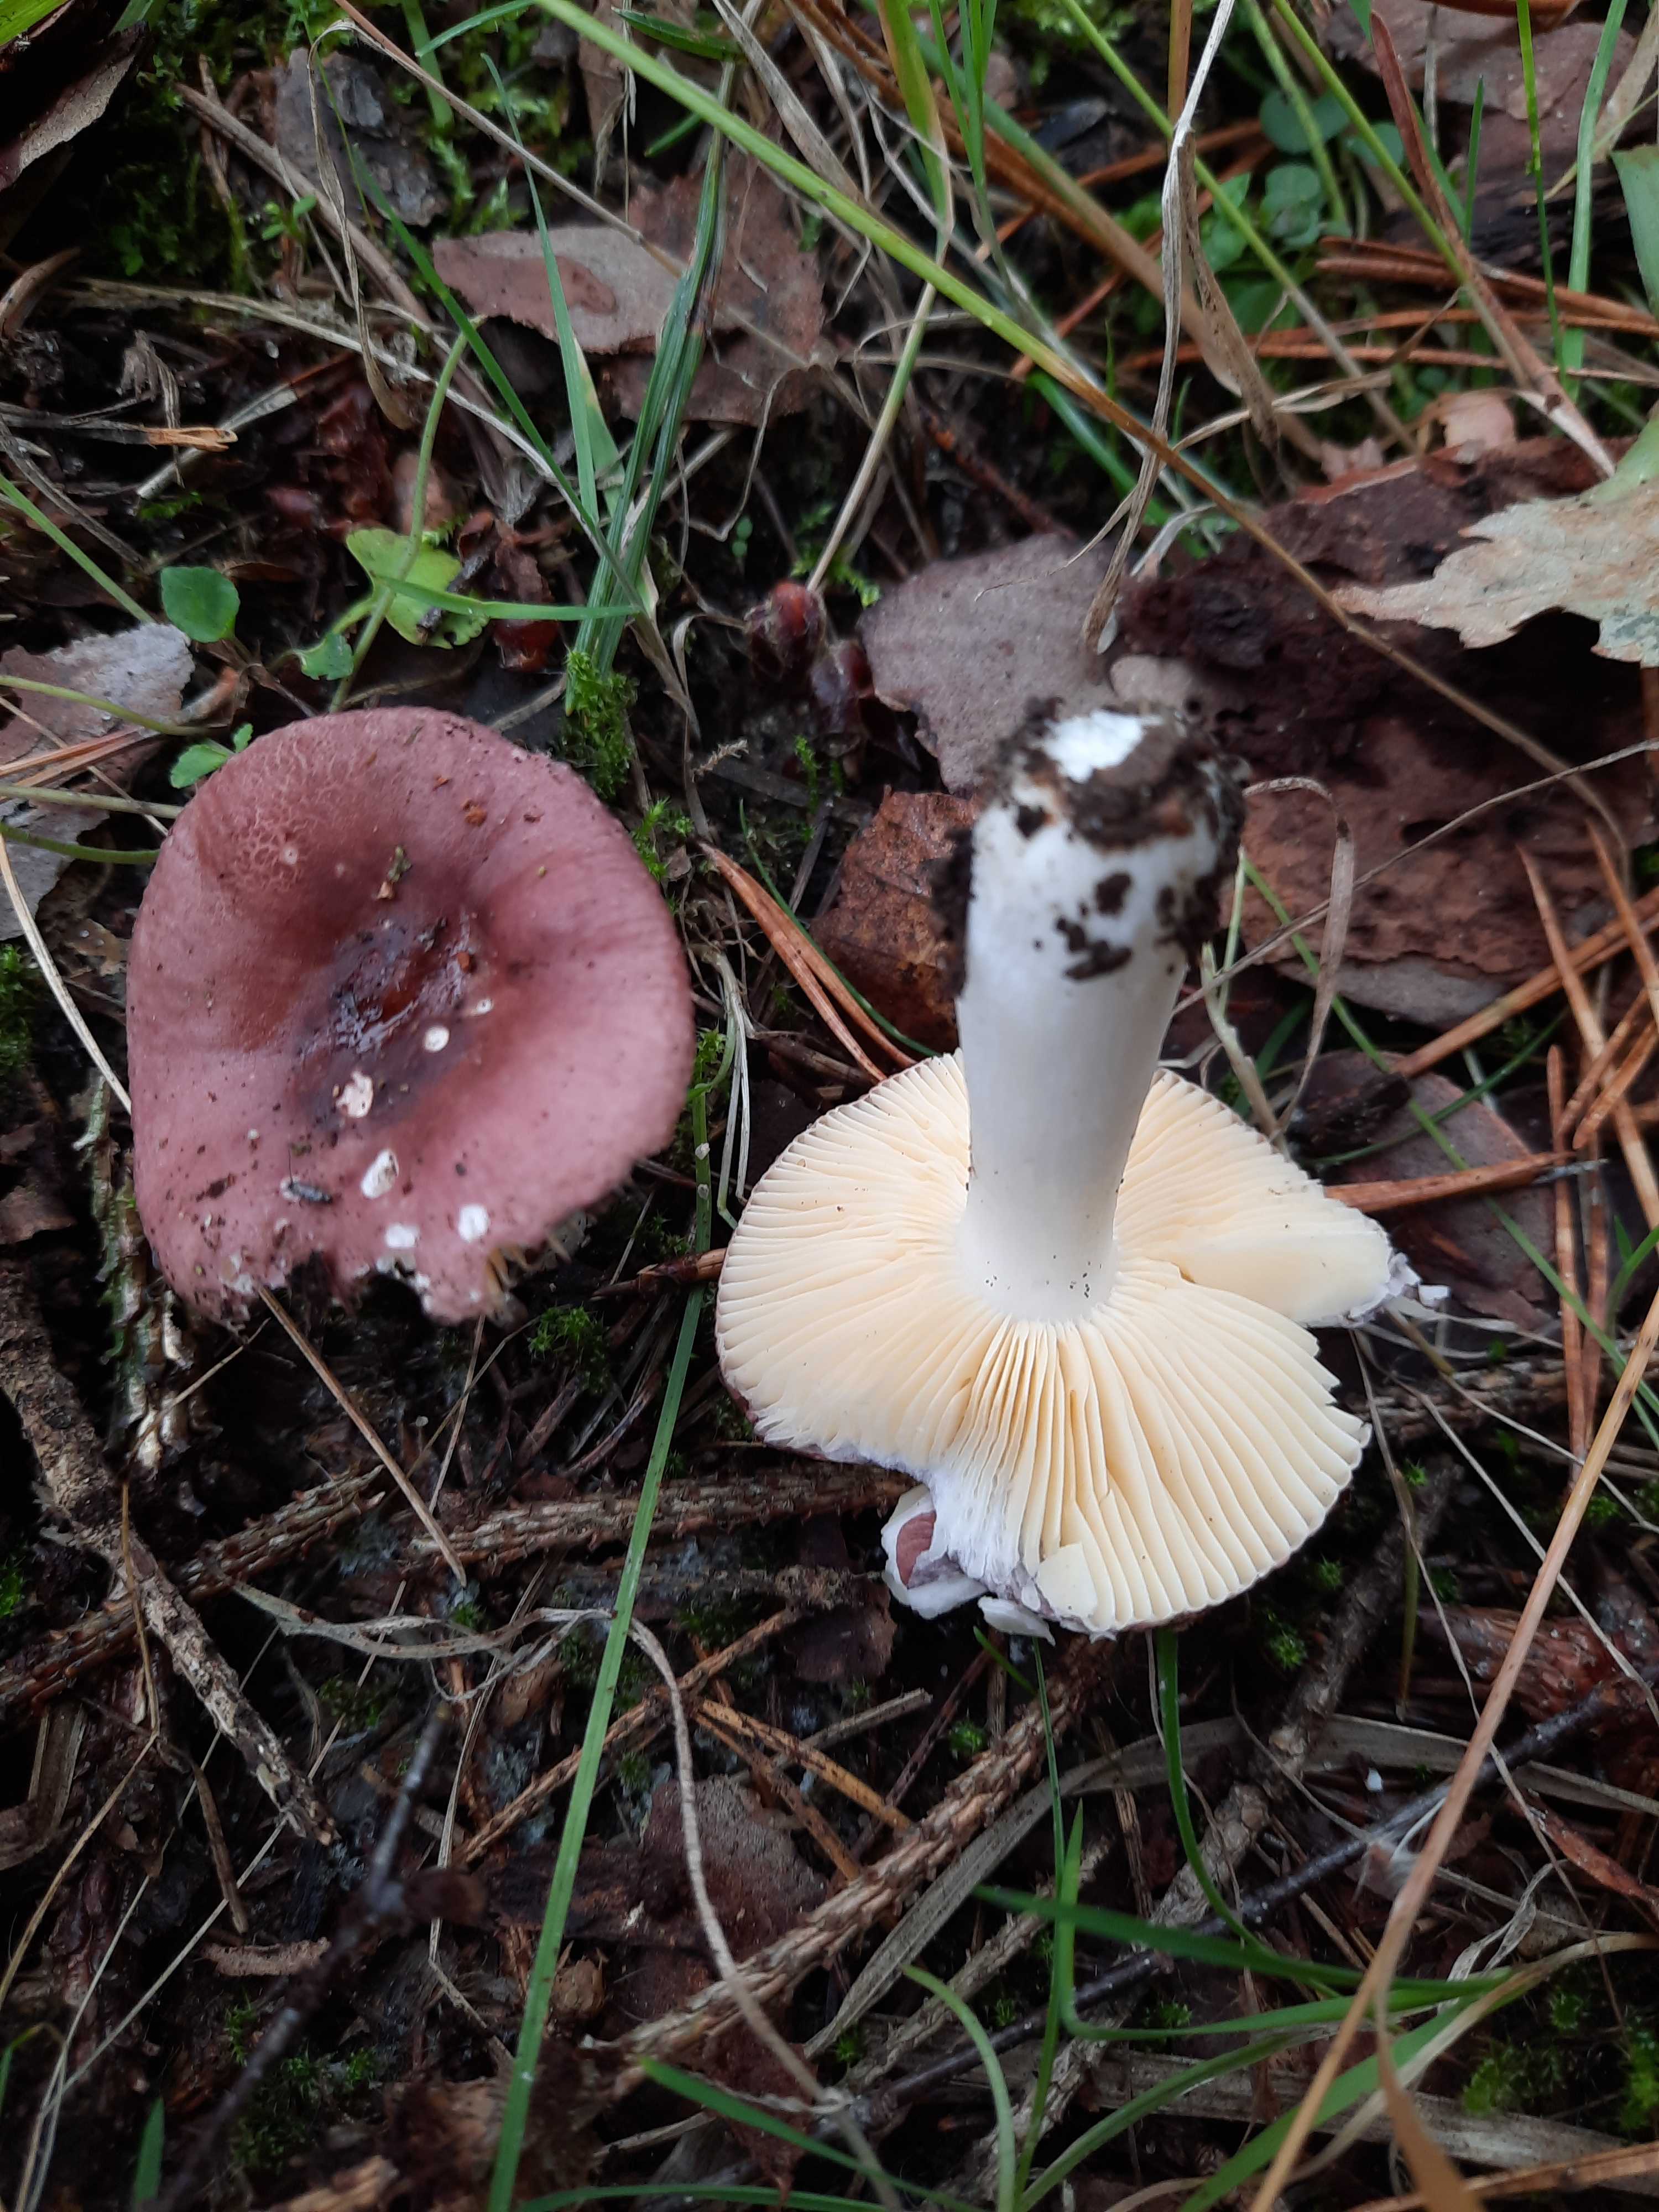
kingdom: Fungi
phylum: Basidiomycota
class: Agaricomycetes
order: Russulales
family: Russulaceae
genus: Russula
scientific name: Russula cessans
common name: fyrre-skørhat
